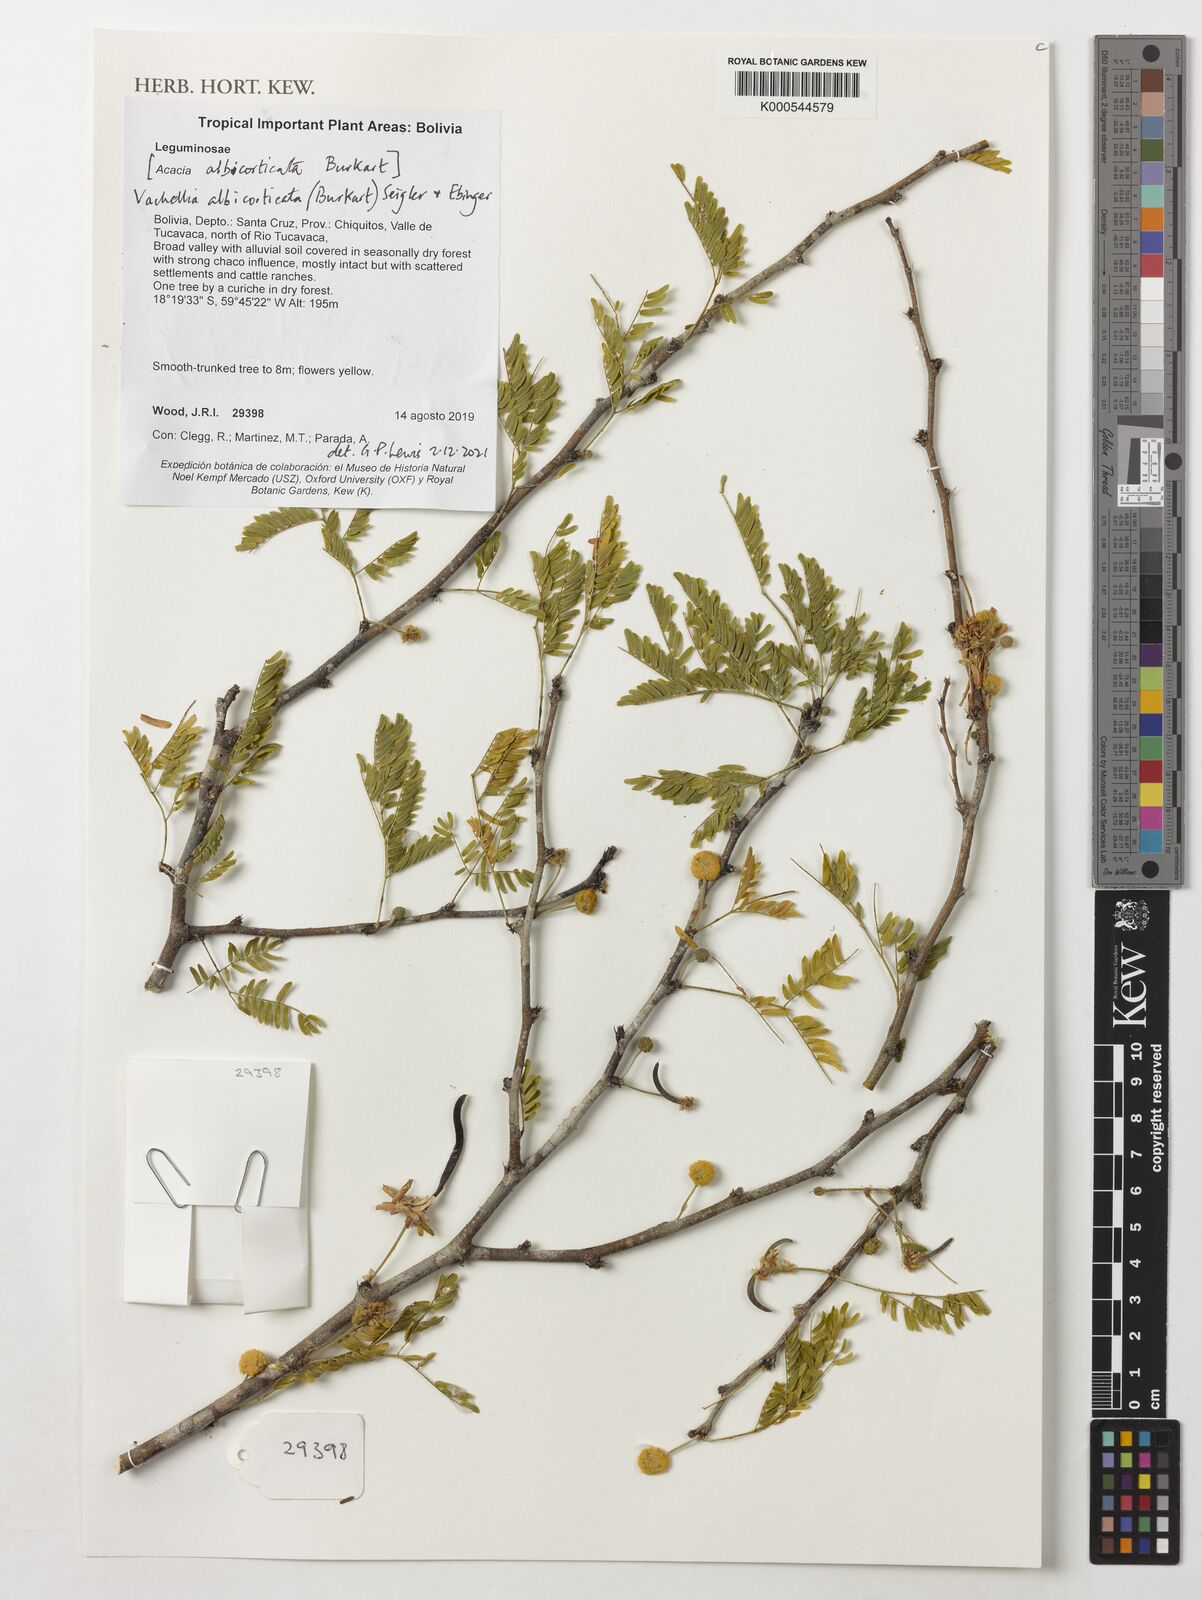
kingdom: Plantae
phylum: Tracheophyta
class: Magnoliopsida
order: Fabales
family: Fabaceae
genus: Vachellia
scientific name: Vachellia albicorticata
